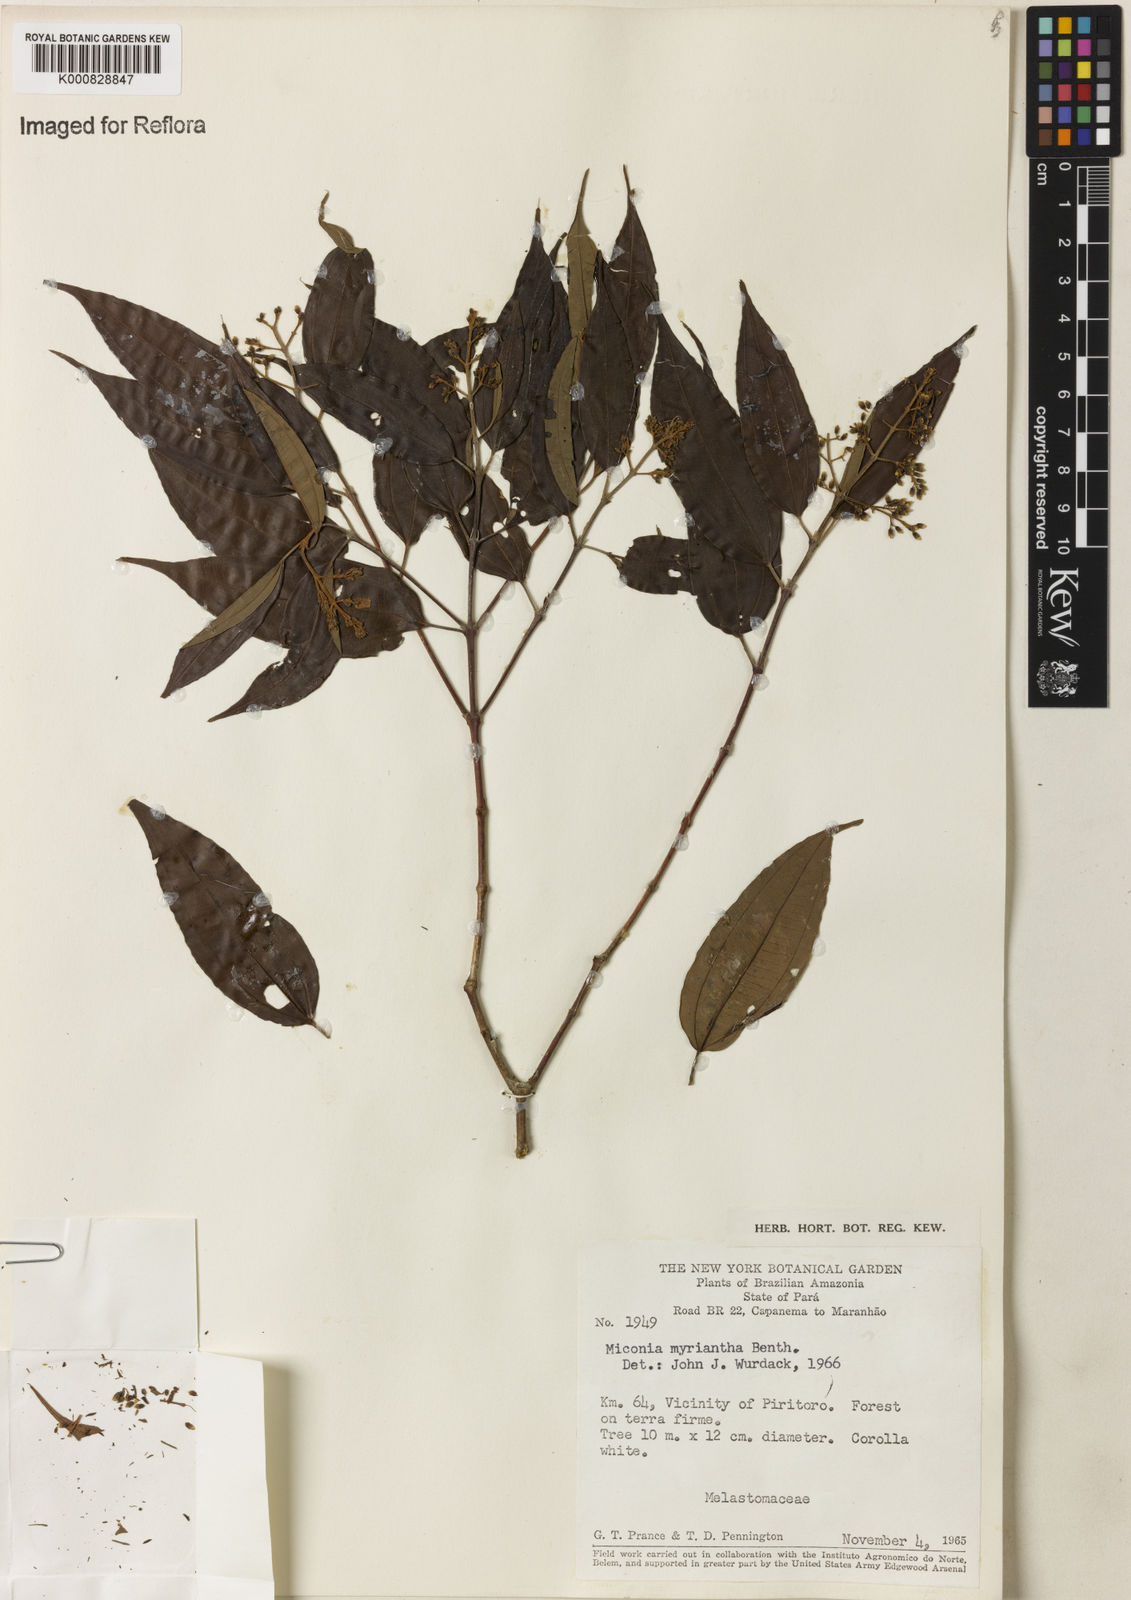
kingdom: Plantae
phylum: Tracheophyta
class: Magnoliopsida
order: Myrtales
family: Melastomataceae
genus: Miconia
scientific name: Miconia myriantha
